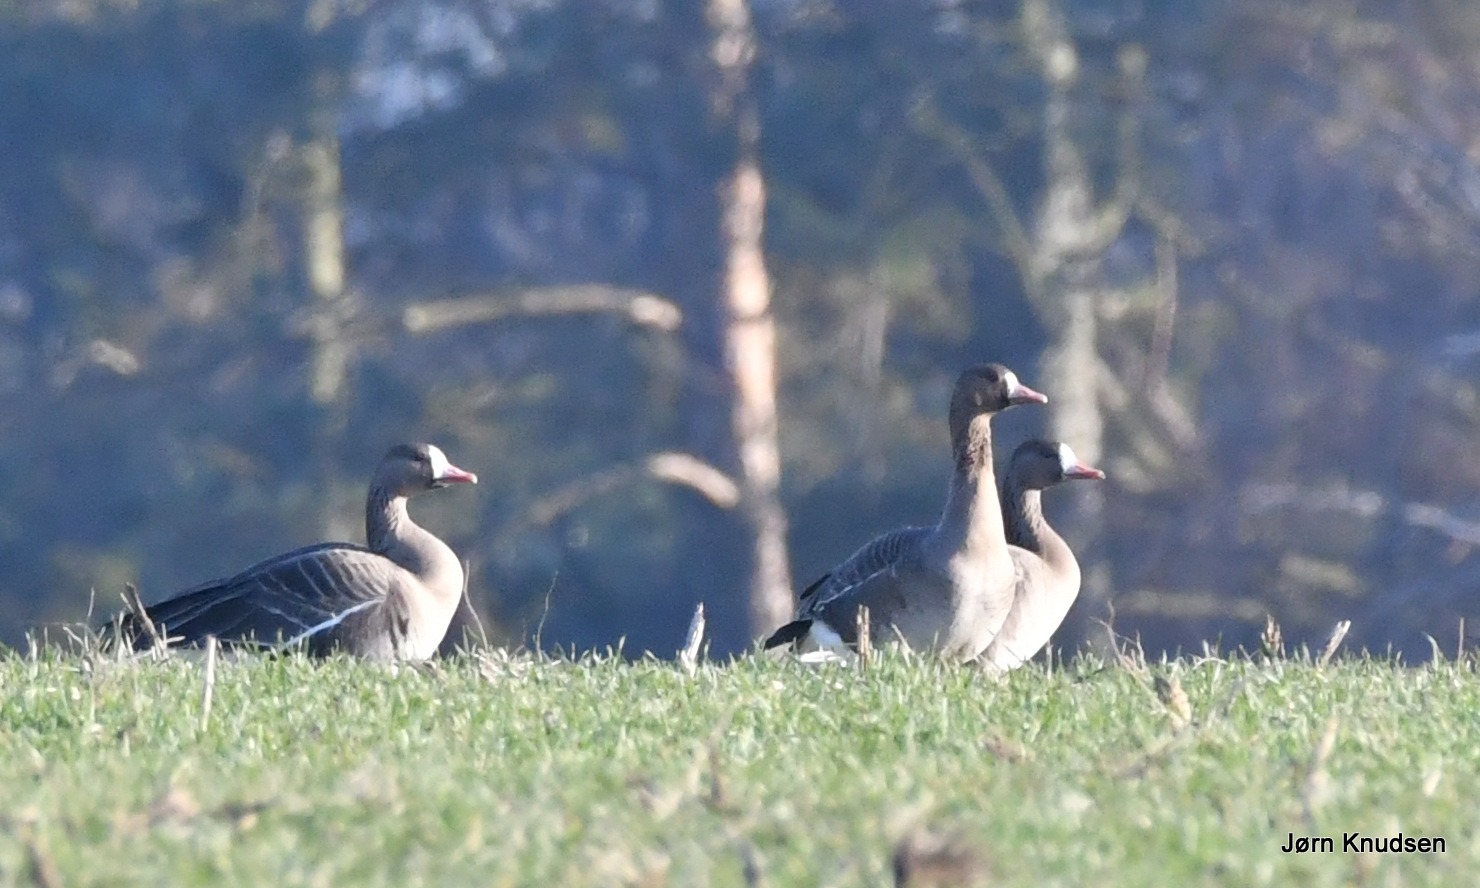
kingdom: Animalia
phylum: Chordata
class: Aves
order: Anseriformes
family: Anatidae
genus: Anser
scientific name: Anser albifrons
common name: Blisgås
